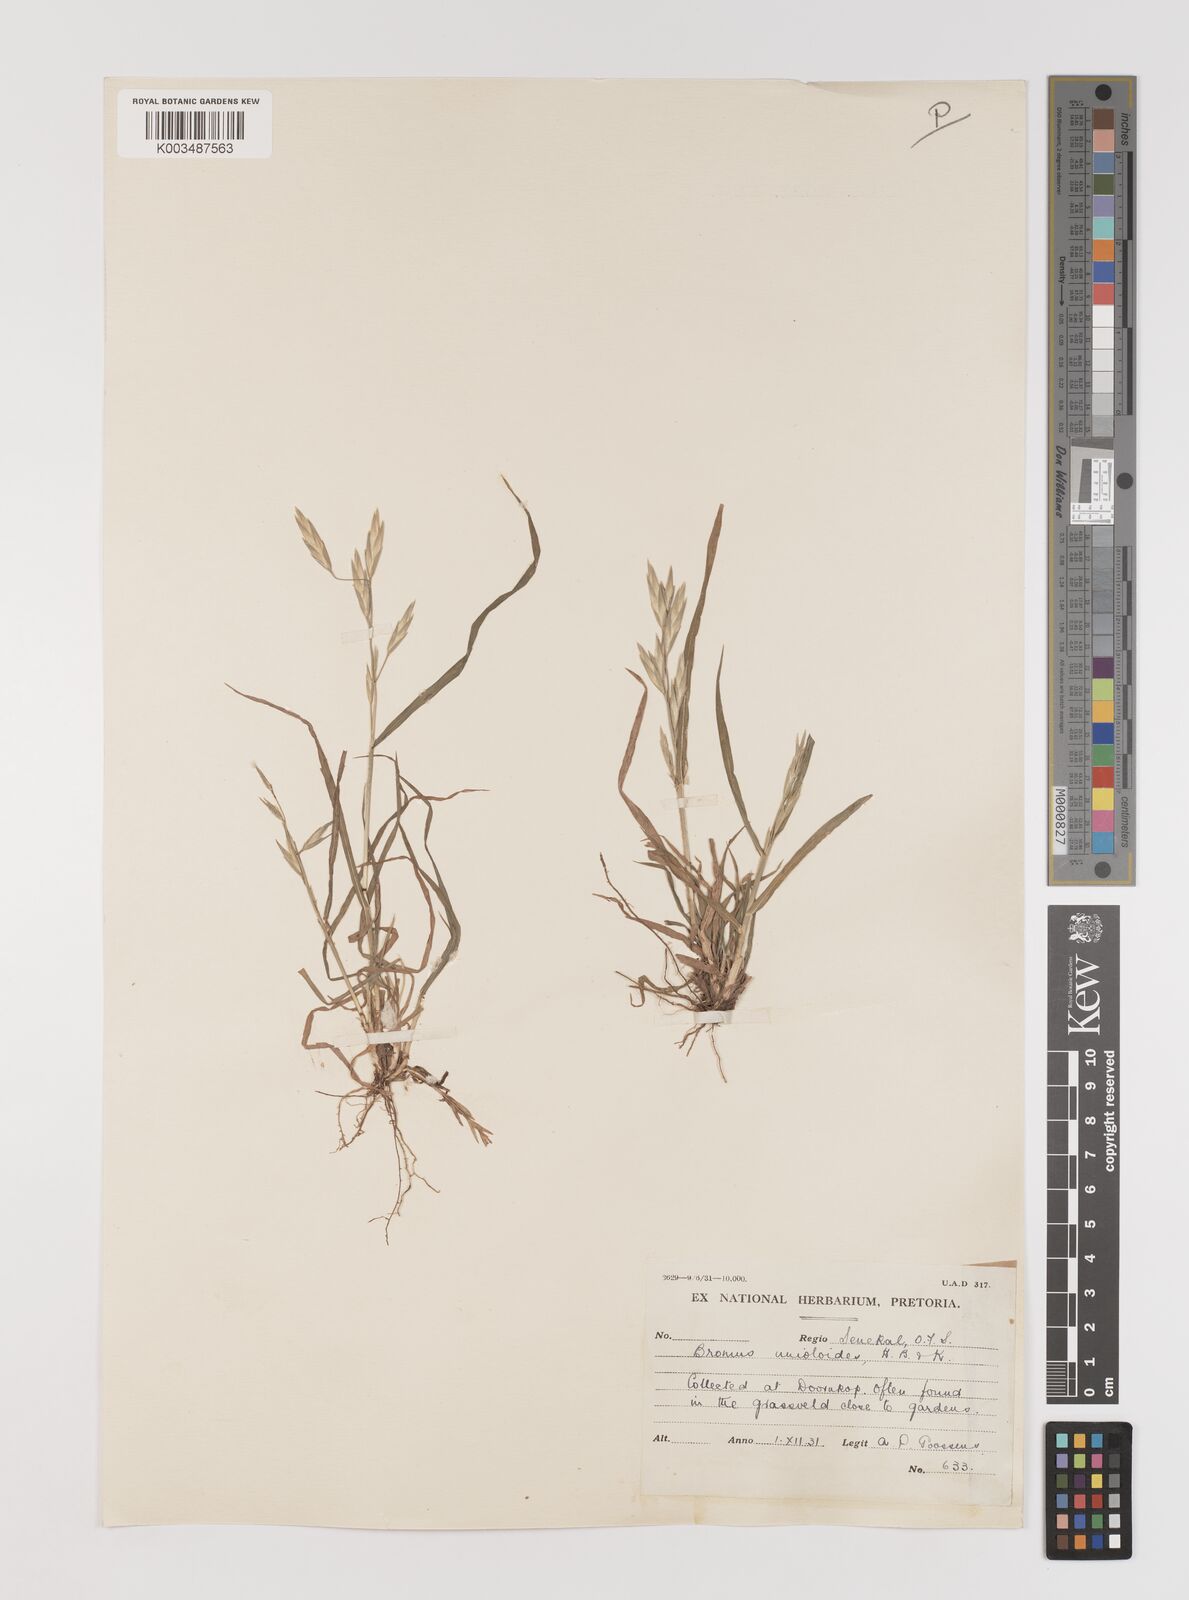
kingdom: Plantae
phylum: Tracheophyta
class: Liliopsida
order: Poales
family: Poaceae
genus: Bromus
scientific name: Bromus catharticus
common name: Rescuegrass
